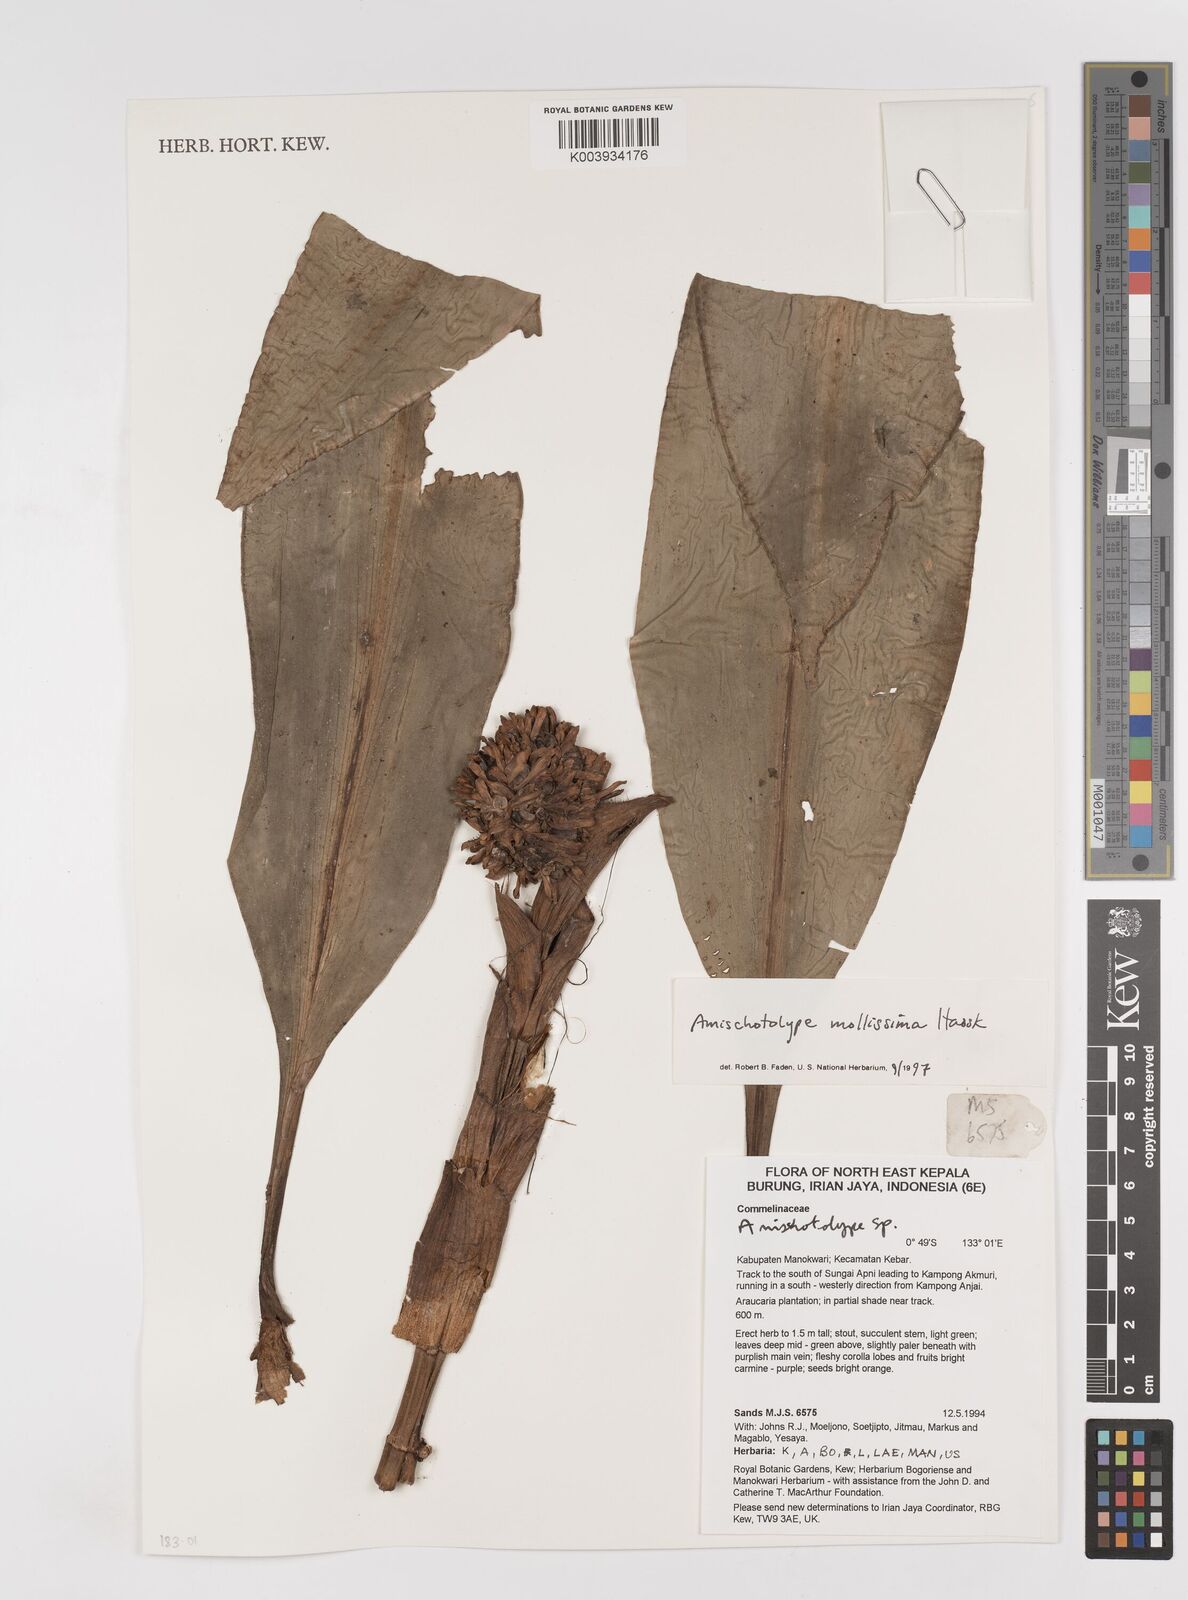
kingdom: Plantae
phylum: Tracheophyta
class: Liliopsida
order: Commelinales
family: Commelinaceae
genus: Amischotolype
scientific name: Amischotolype mollissima
